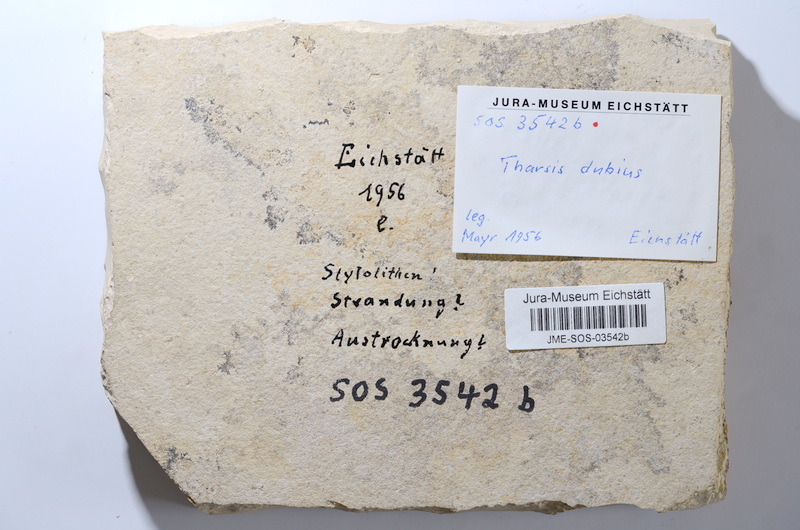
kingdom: Animalia
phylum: Chordata
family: Ascalaboidae
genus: Tharsis
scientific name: Tharsis dubius
